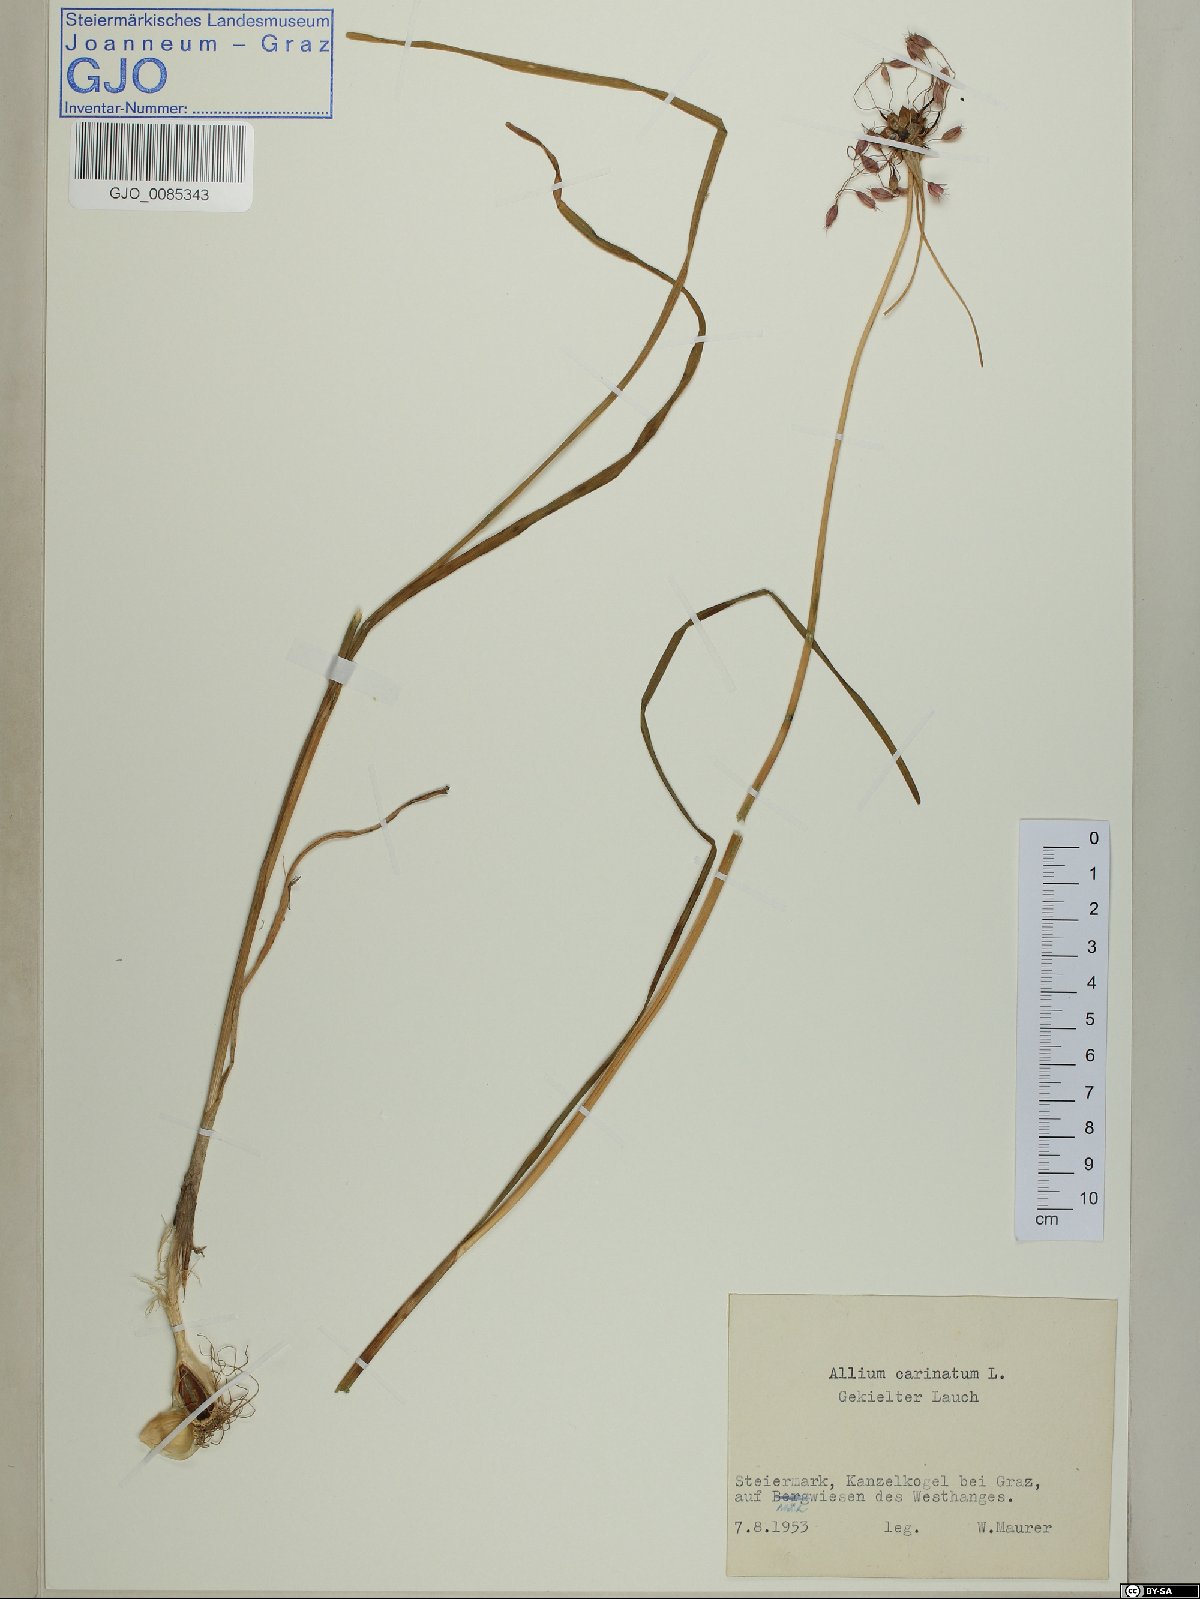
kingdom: Plantae
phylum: Tracheophyta
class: Liliopsida
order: Asparagales
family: Amaryllidaceae
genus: Allium
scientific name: Allium carinatum
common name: Keeled garlic
